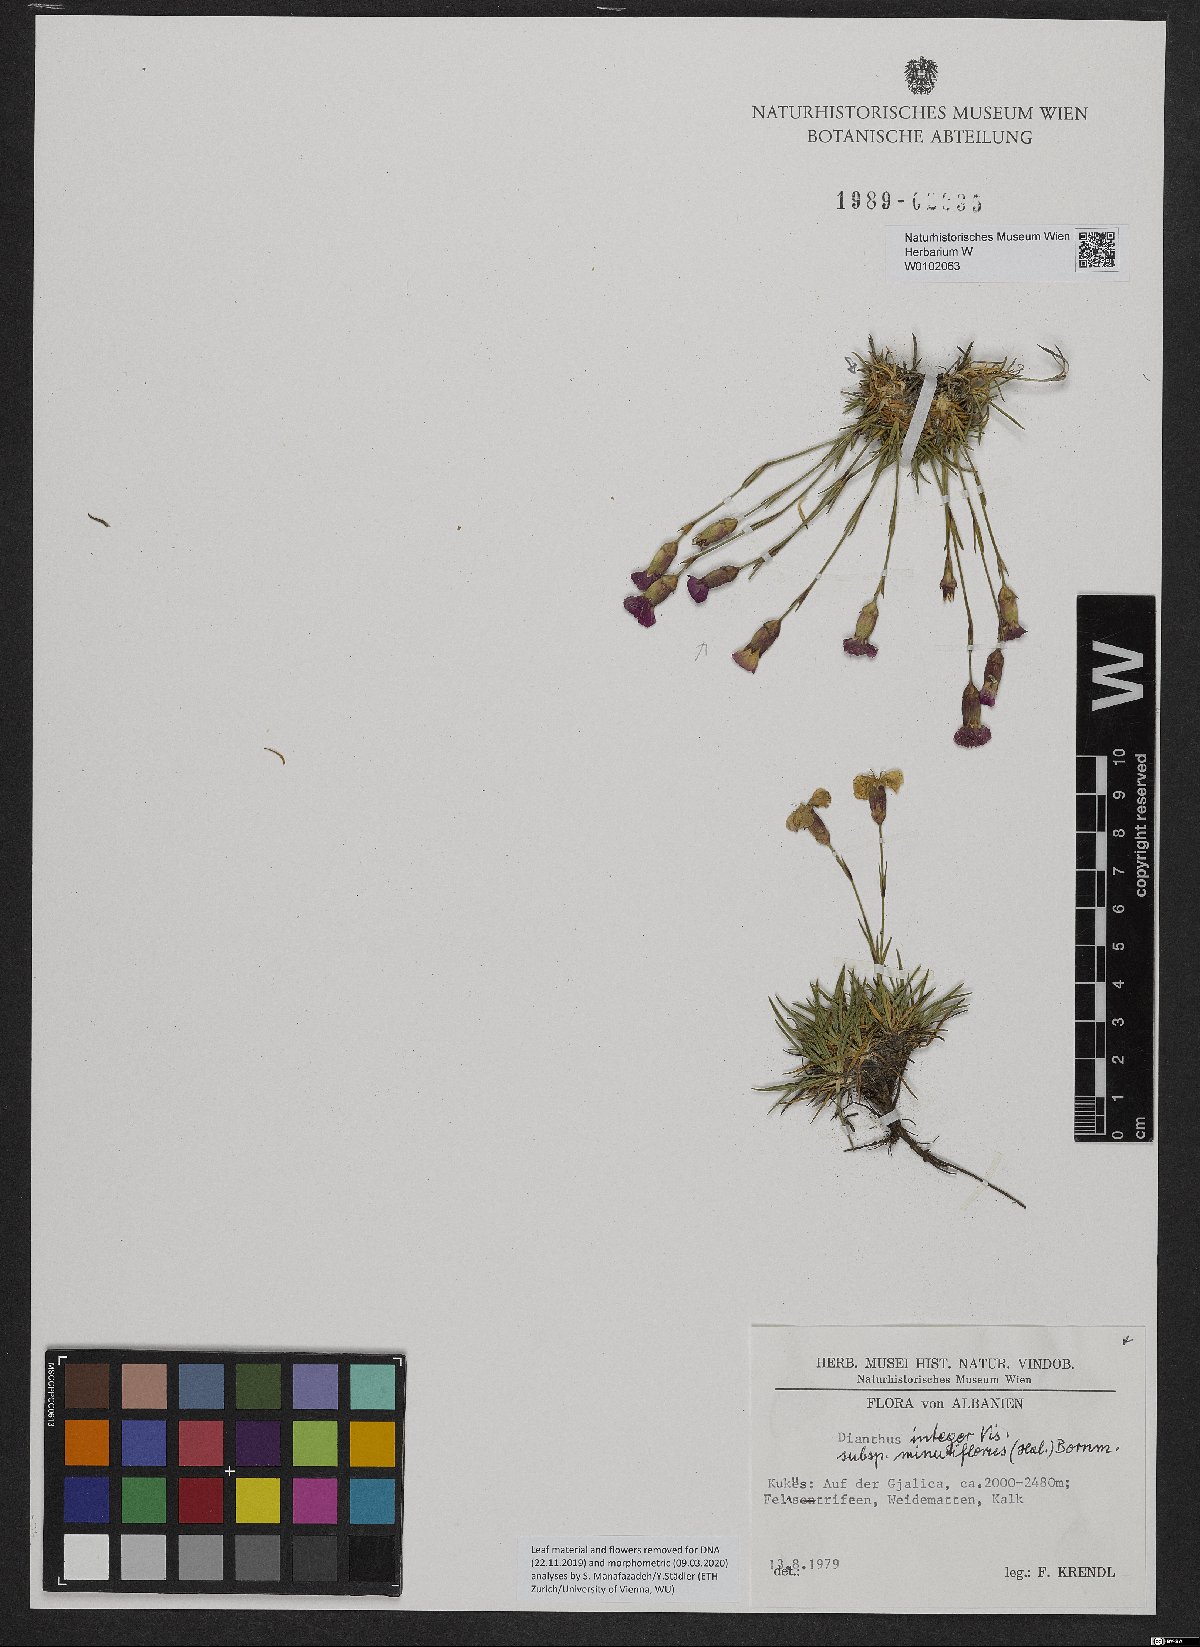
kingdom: Plantae
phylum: Tracheophyta
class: Magnoliopsida
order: Caryophyllales
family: Caryophyllaceae
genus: Dianthus
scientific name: Dianthus integer
